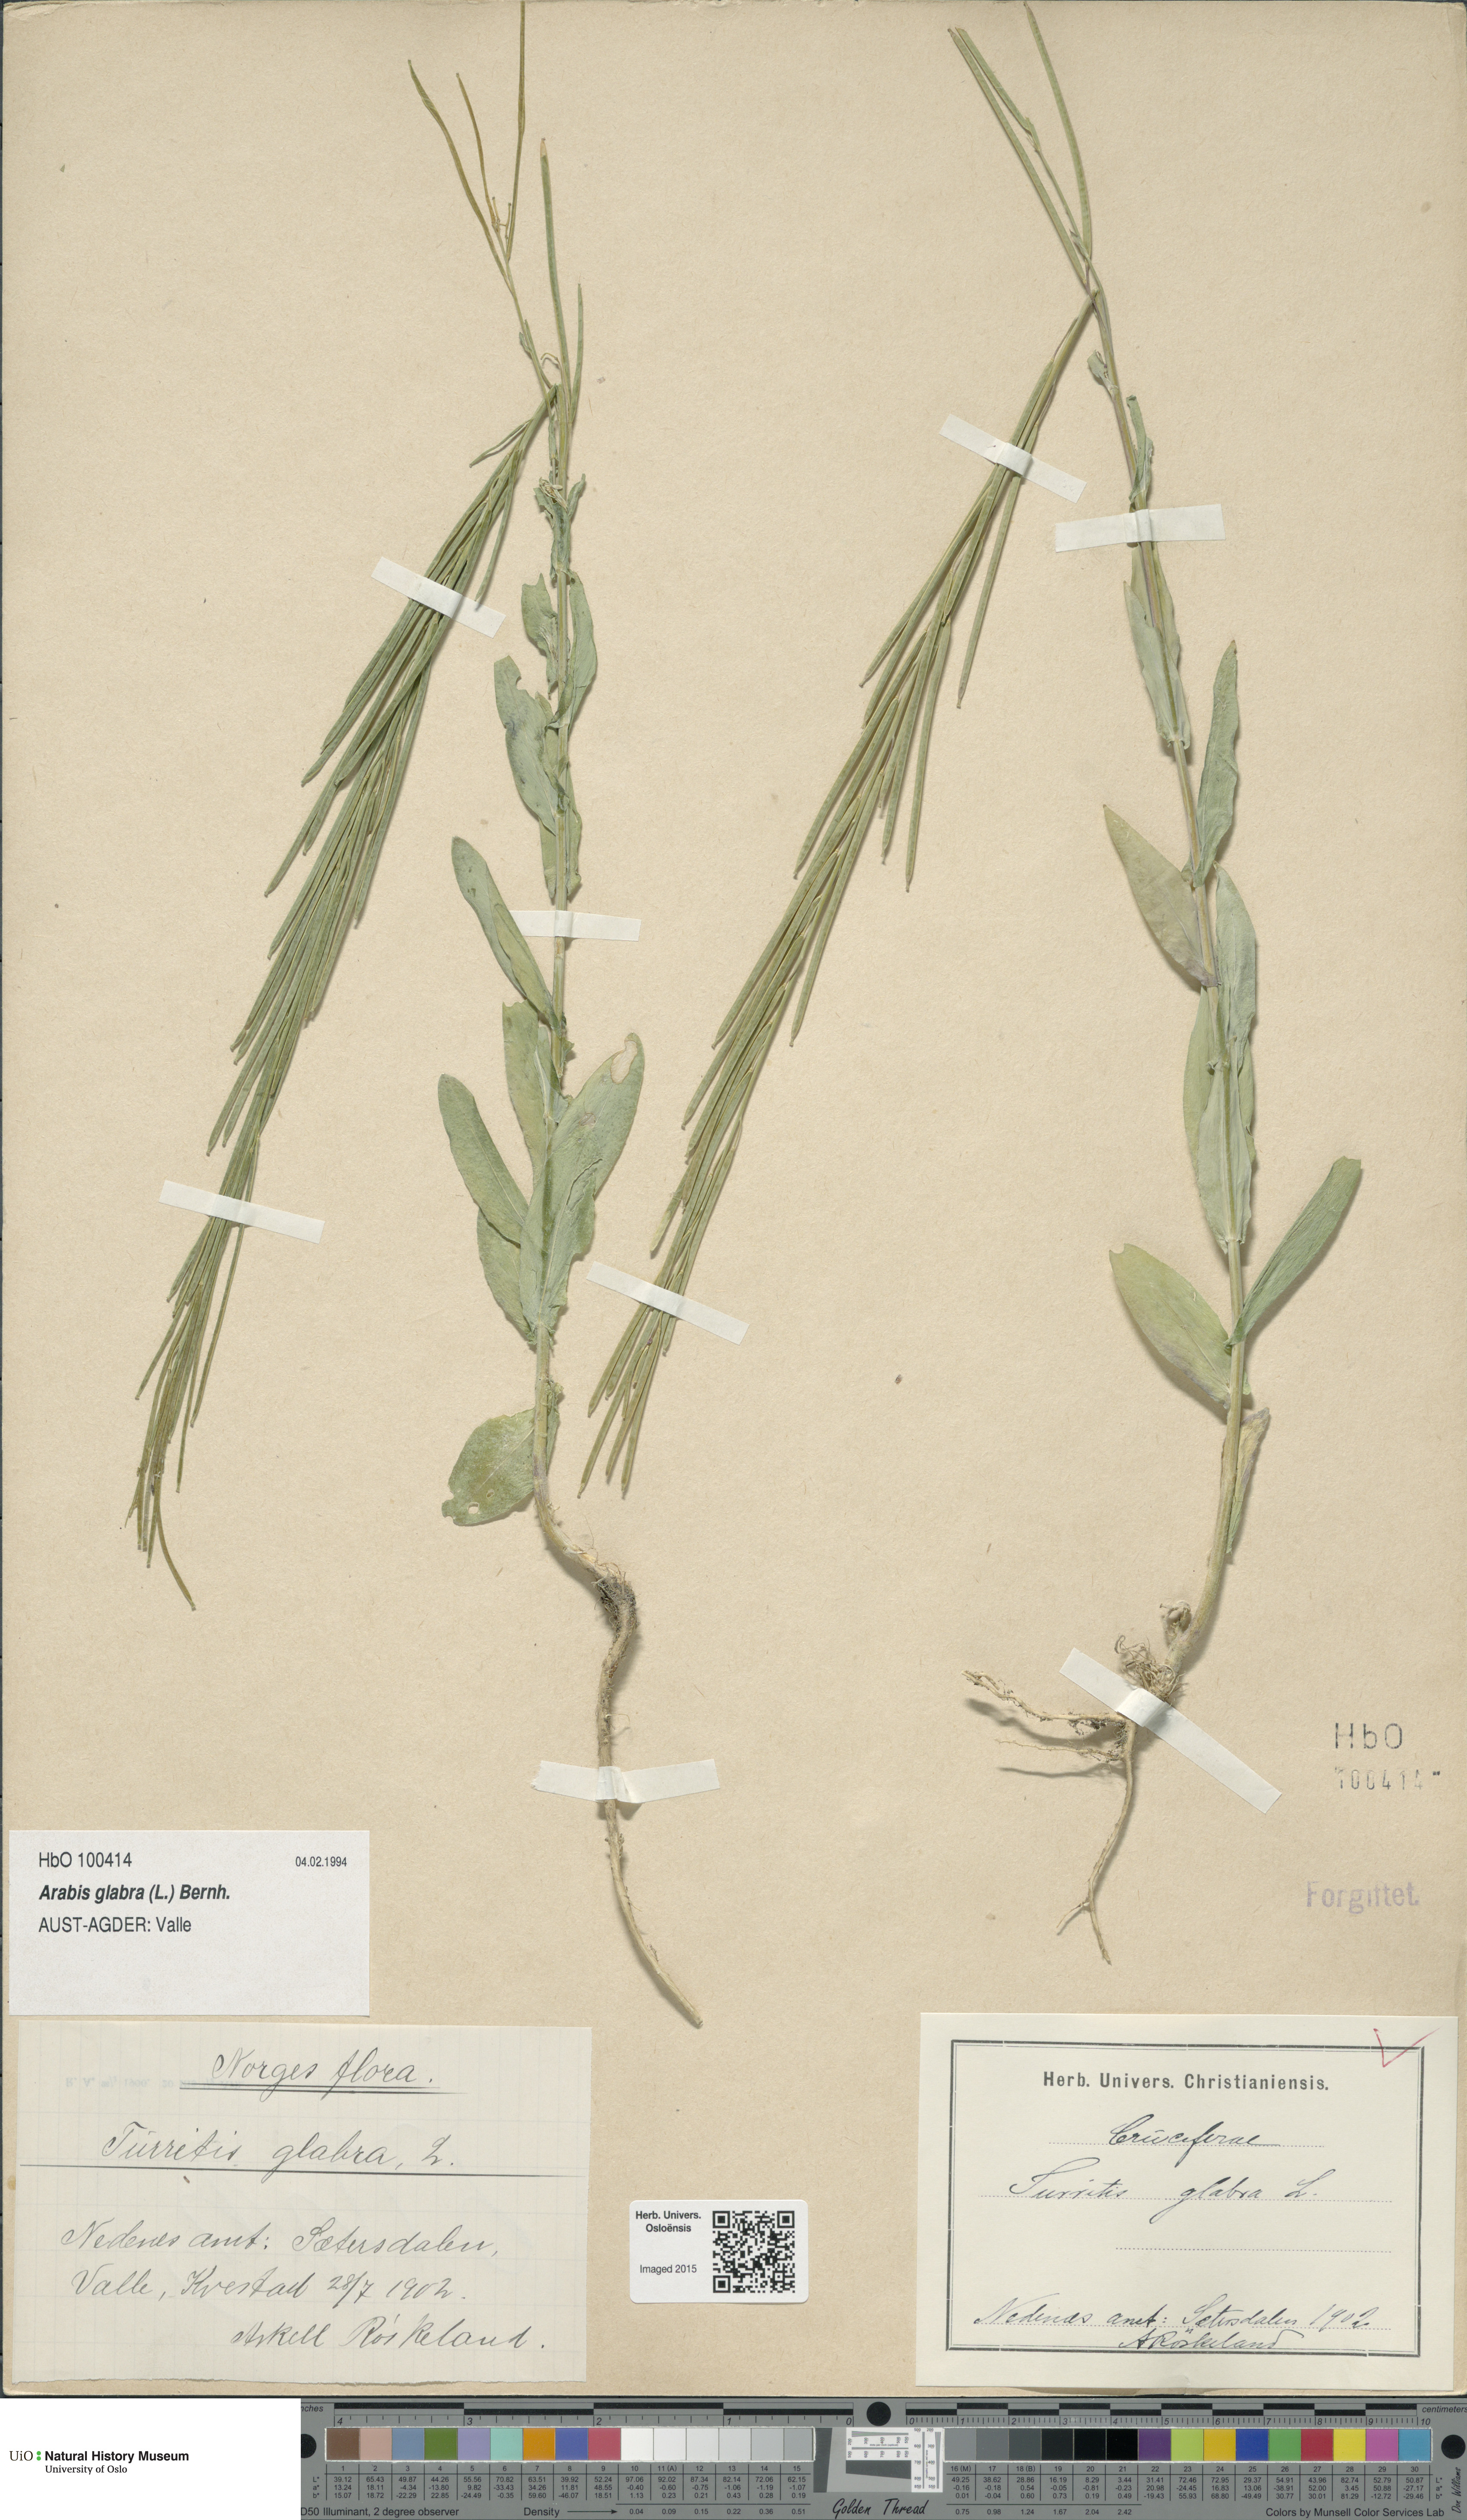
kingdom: Plantae
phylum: Tracheophyta
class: Magnoliopsida
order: Brassicales
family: Brassicaceae
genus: Turritis
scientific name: Turritis glabra
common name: Tower rockcress
